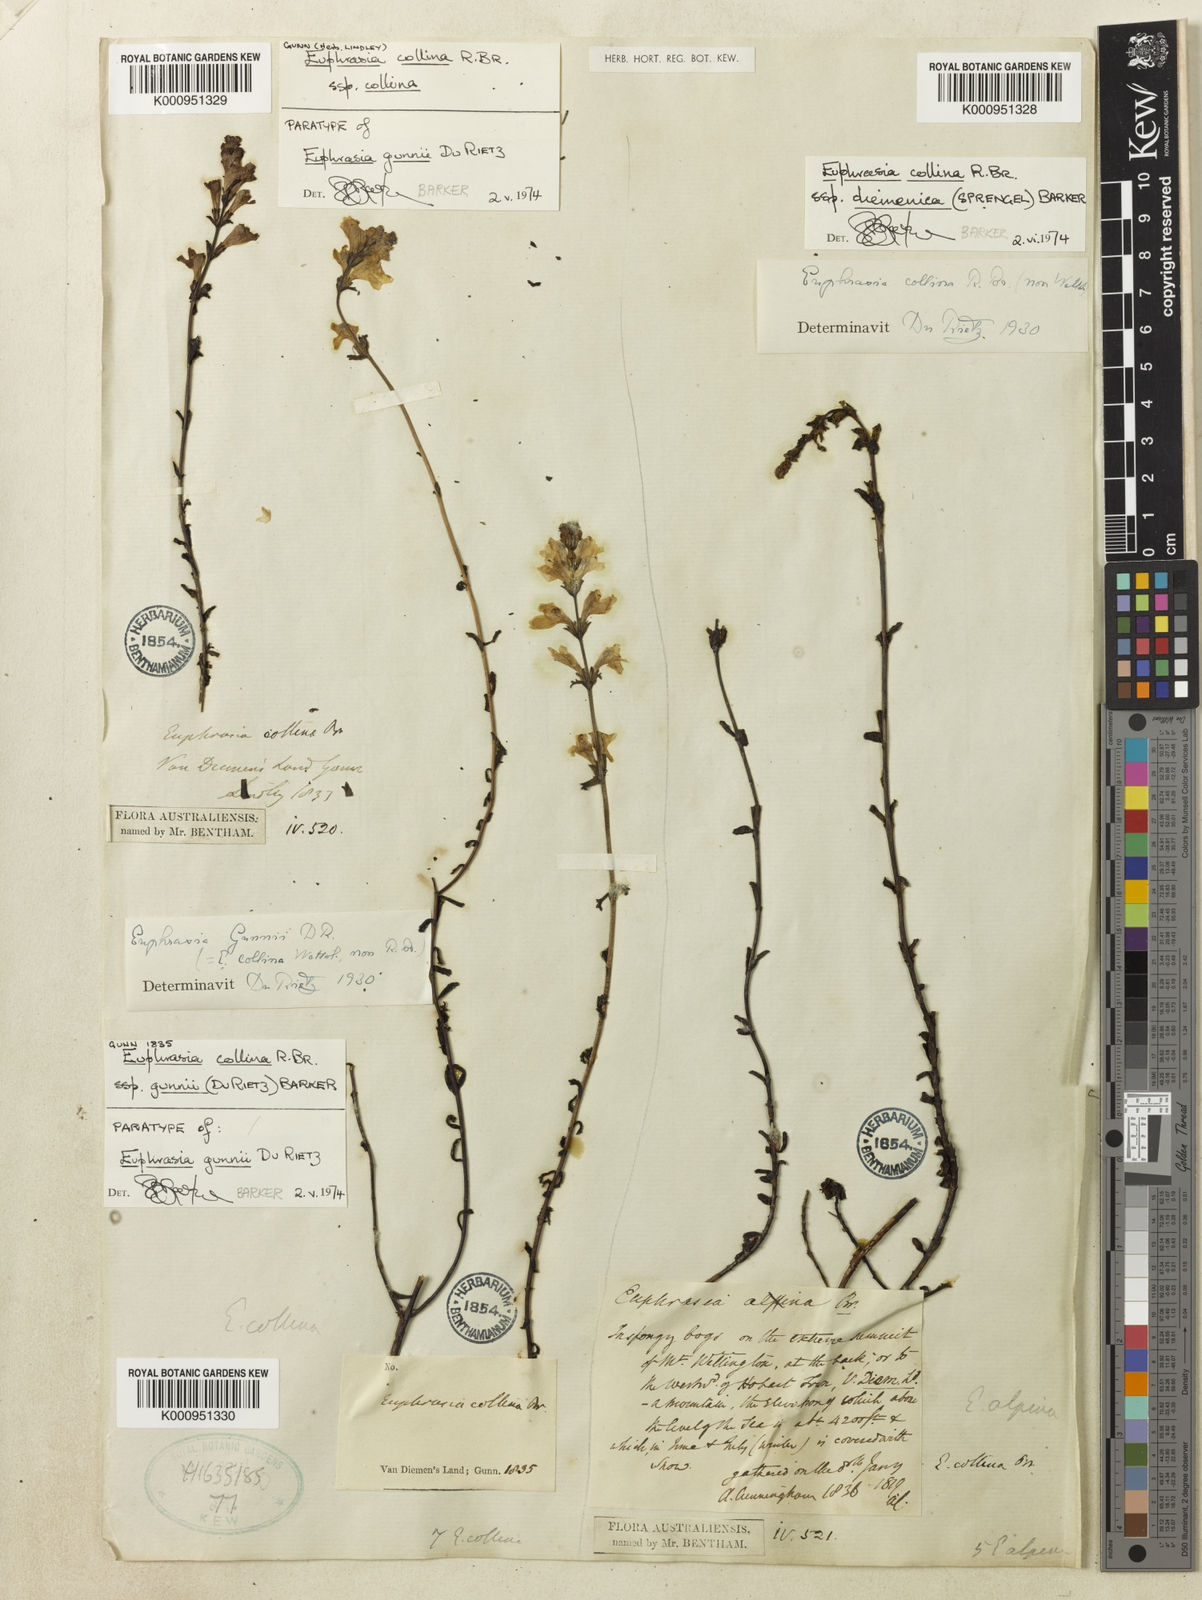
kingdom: Plantae
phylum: Tracheophyta
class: Magnoliopsida
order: Lamiales
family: Orobanchaceae
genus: Euphrasia
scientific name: Euphrasia collina
